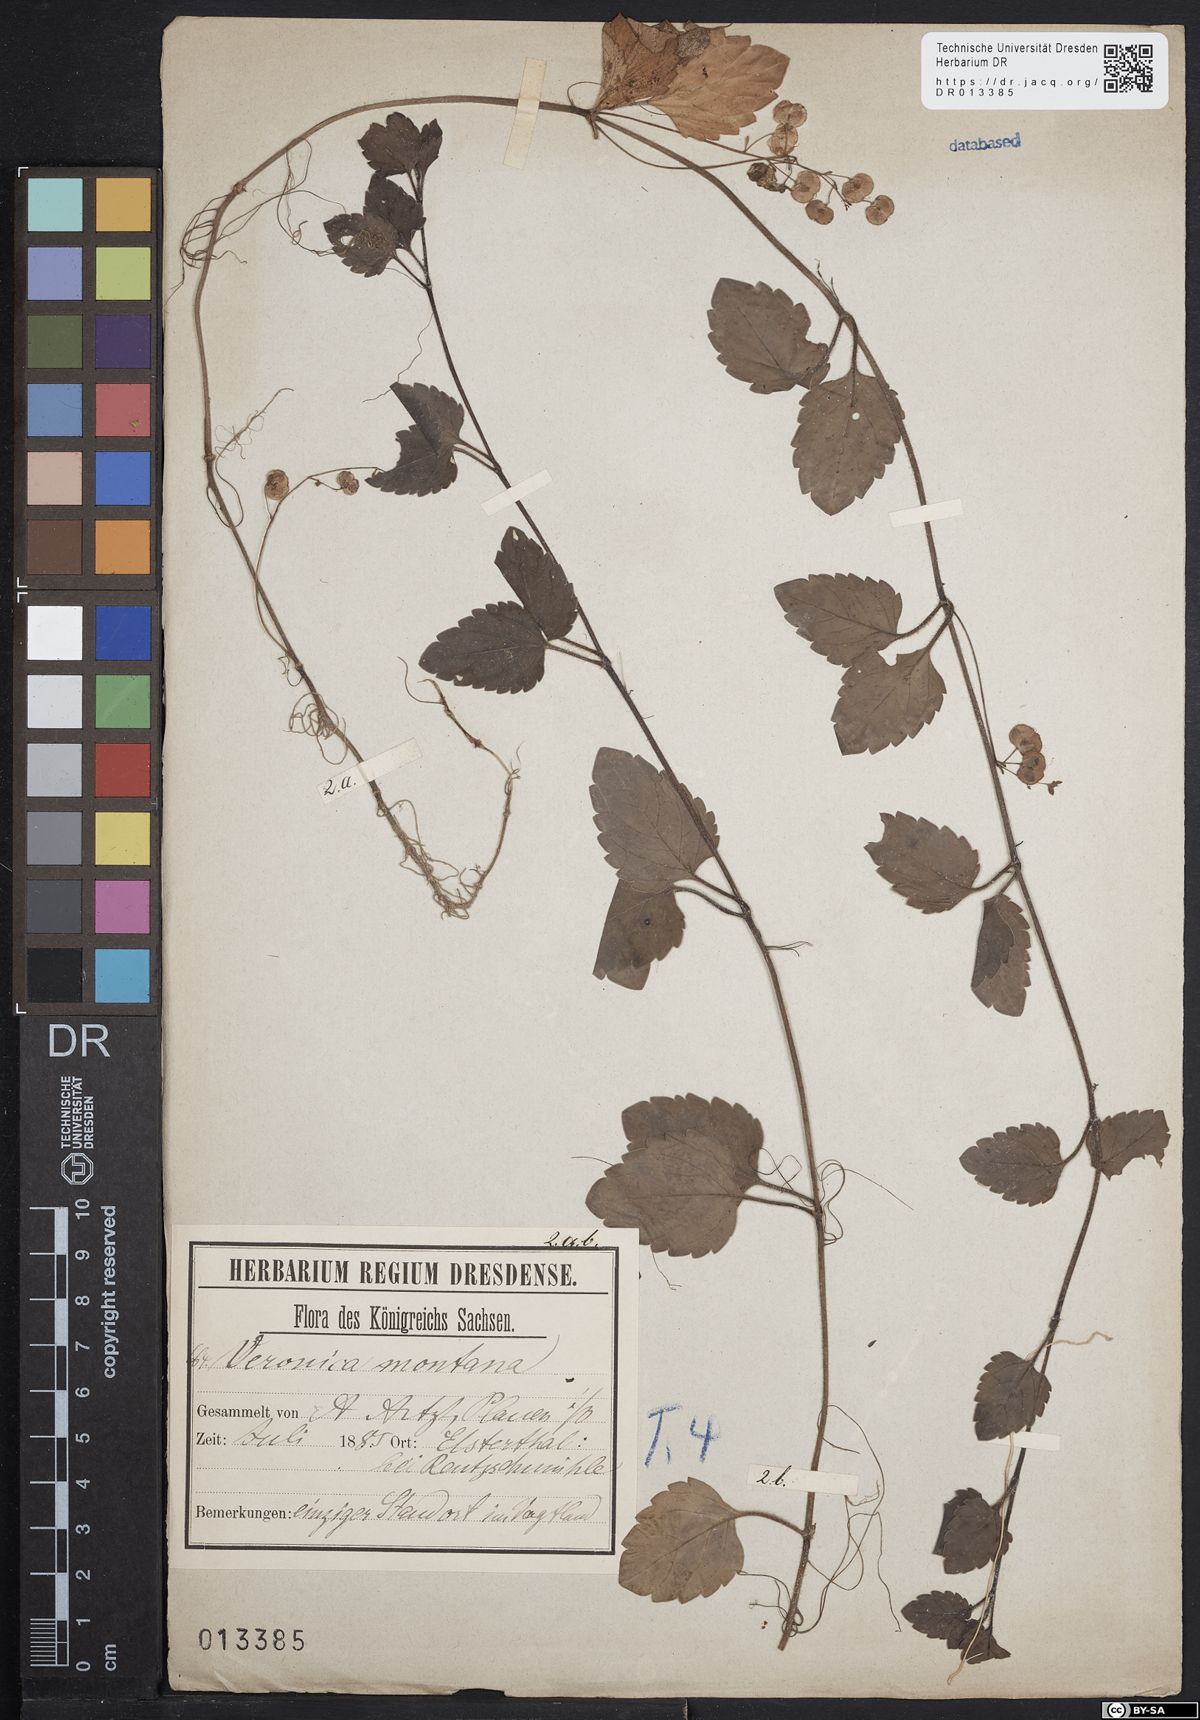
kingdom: Plantae
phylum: Tracheophyta
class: Magnoliopsida
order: Lamiales
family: Plantaginaceae
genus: Veronica
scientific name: Veronica montana
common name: Wood speedwell
